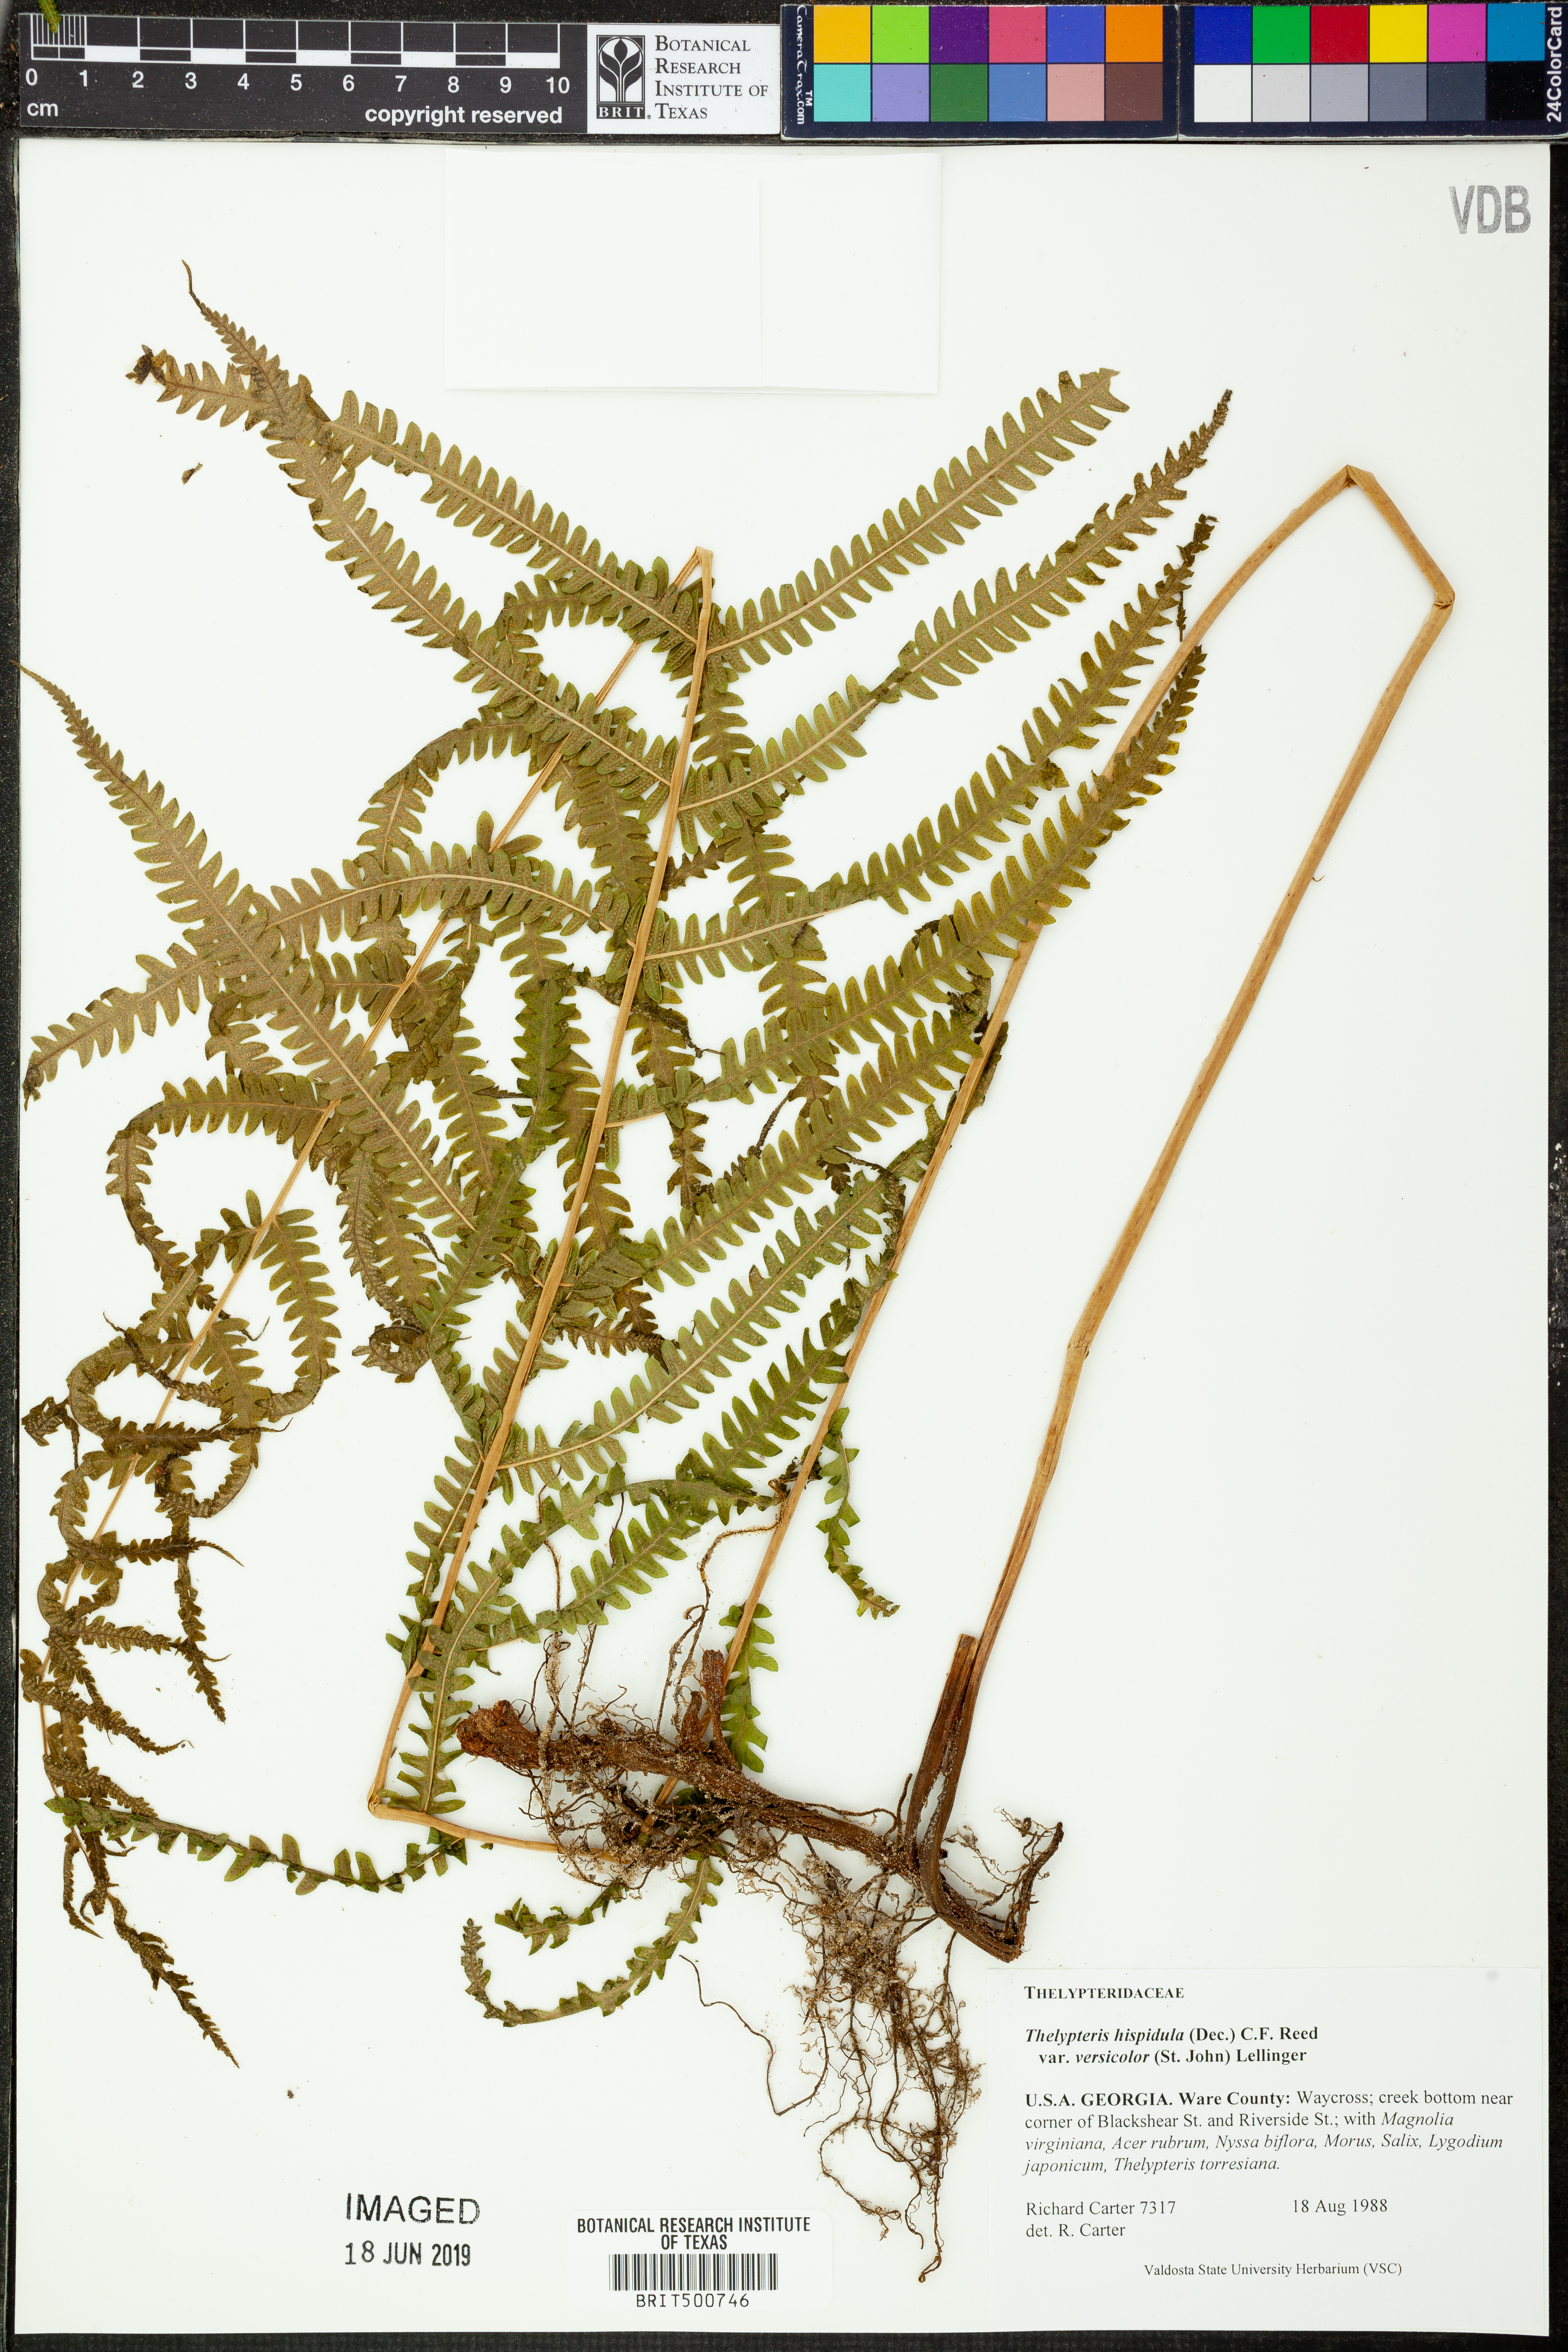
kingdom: Plantae
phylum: Tracheophyta
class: Polypodiopsida
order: Polypodiales
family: Thelypteridaceae
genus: Christella
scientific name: Christella hispidula
